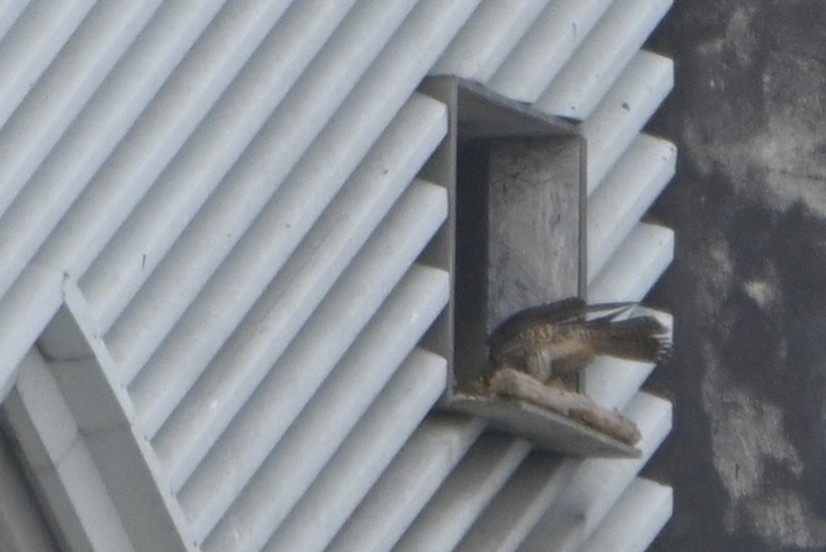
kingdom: Animalia
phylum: Chordata
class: Aves
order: Falconiformes
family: Falconidae
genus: Falco
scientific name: Falco peregrinus
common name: Vandrefalk
